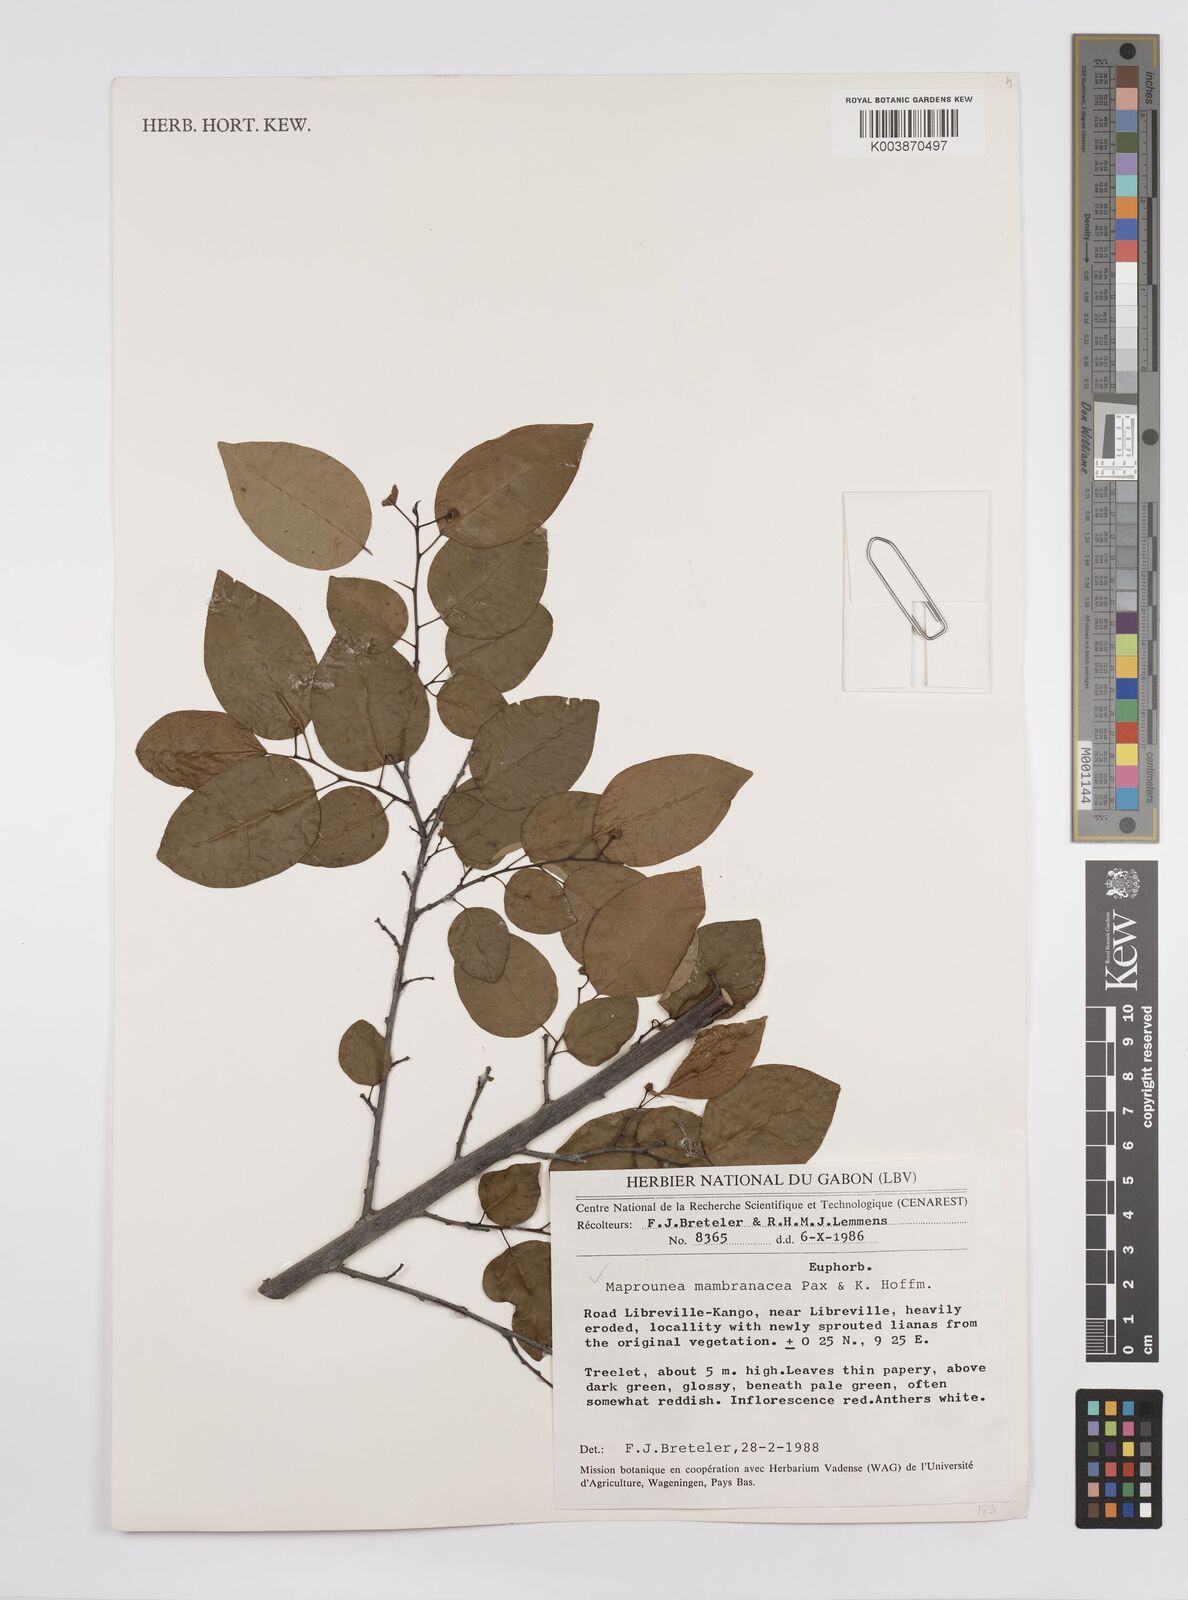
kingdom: Plantae
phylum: Tracheophyta
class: Magnoliopsida
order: Malpighiales
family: Euphorbiaceae
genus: Maprounea
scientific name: Maprounea membranacea
